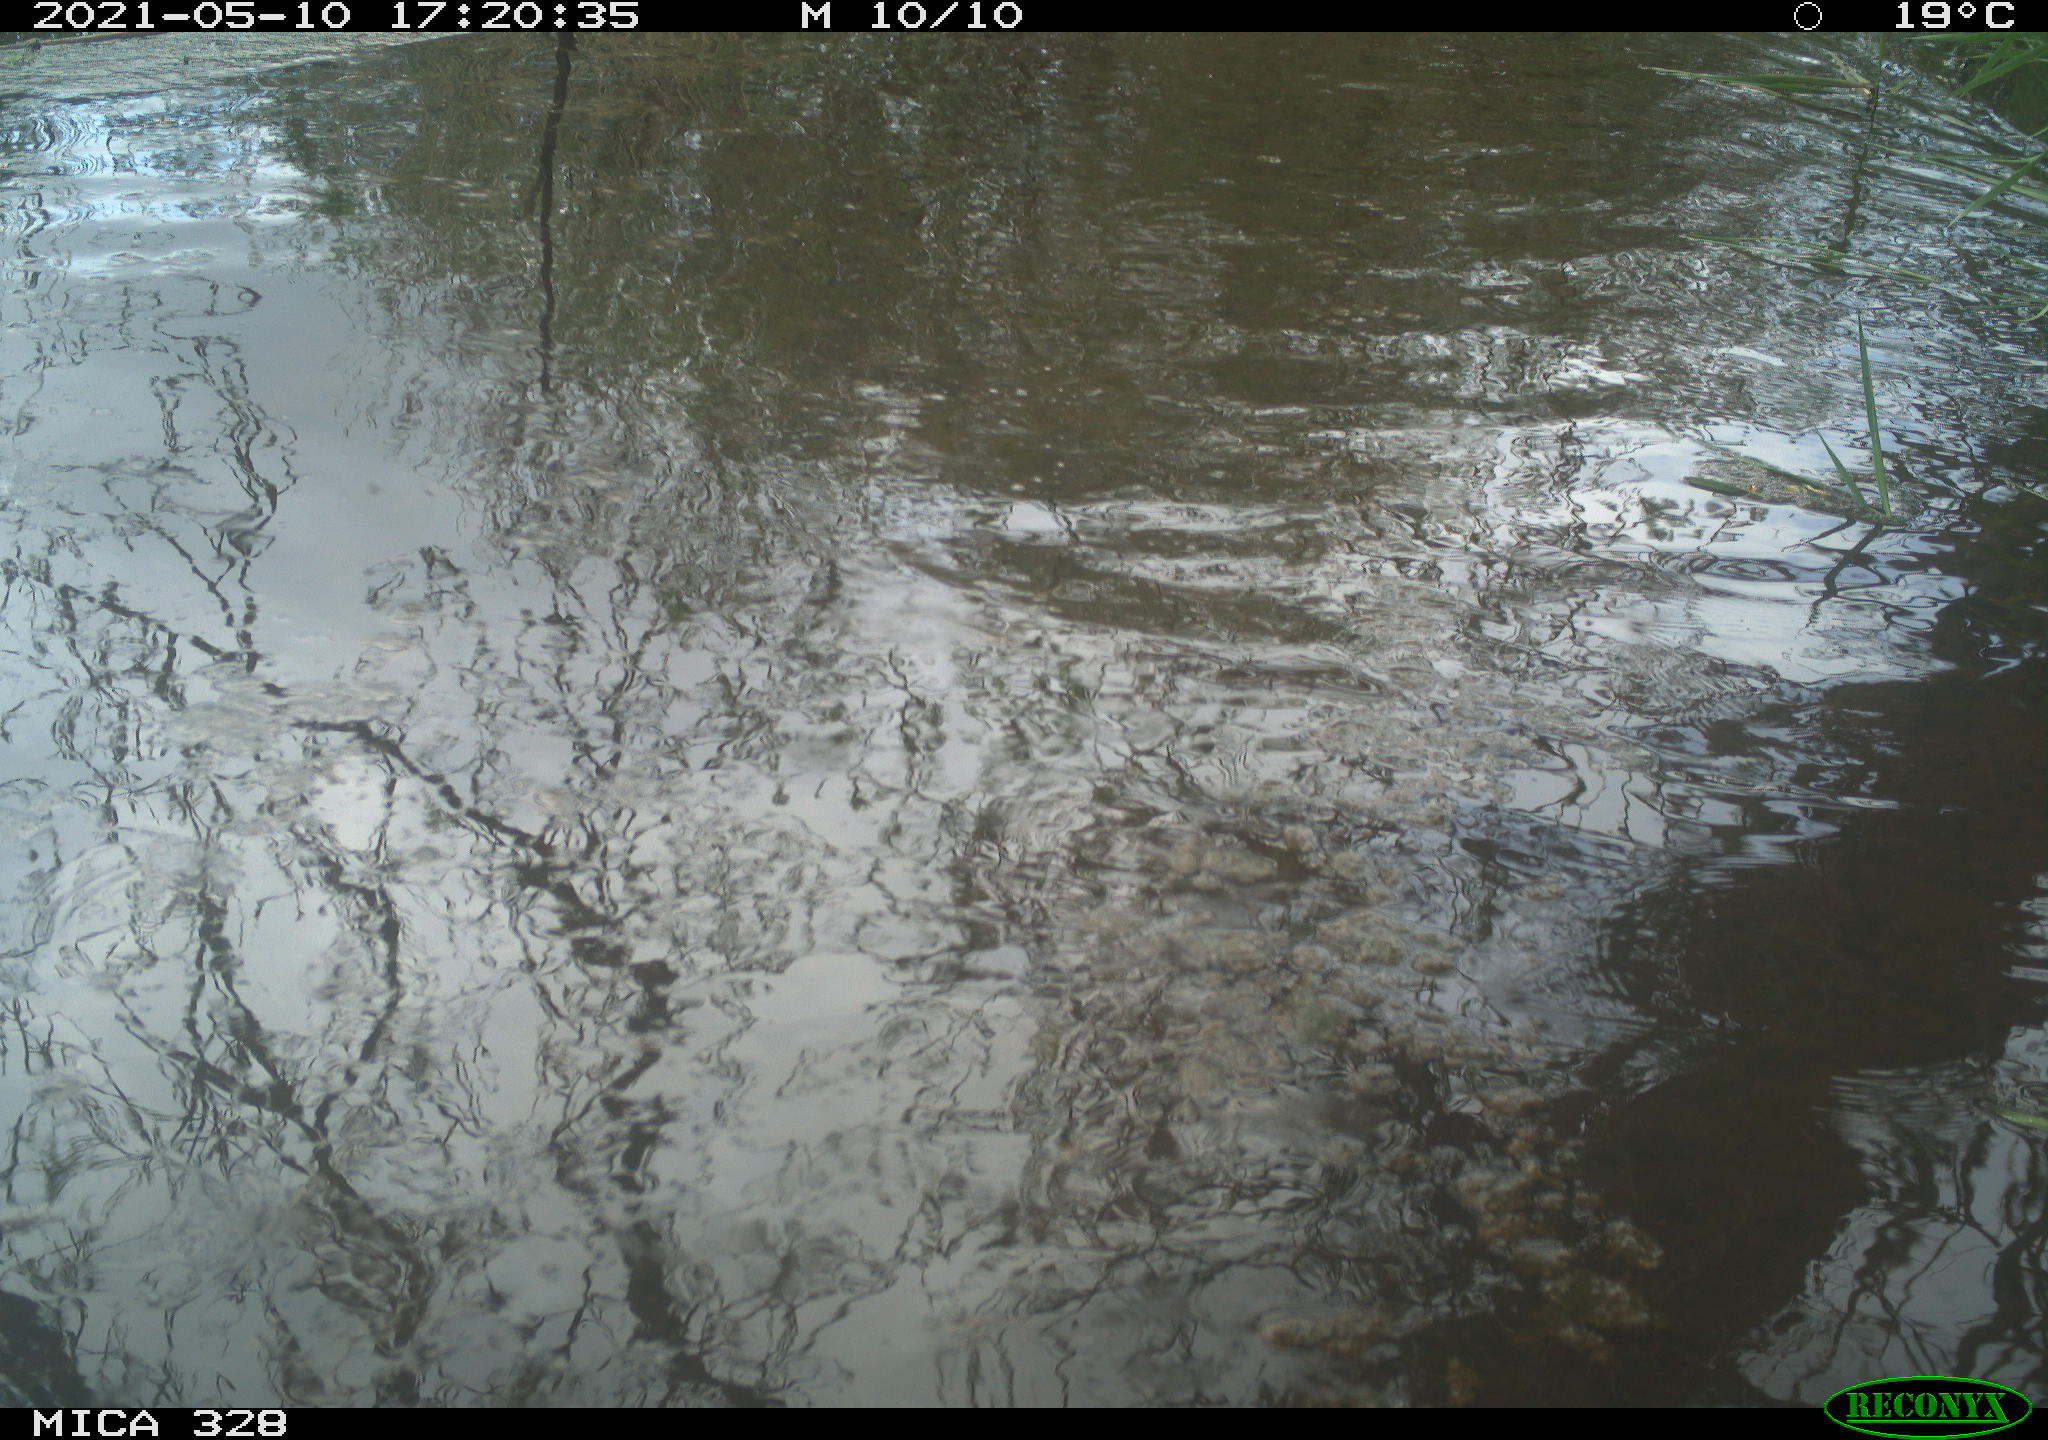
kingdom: Animalia
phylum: Chordata
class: Mammalia
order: Rodentia
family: Cricetidae
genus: Ondatra
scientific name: Ondatra zibethicus
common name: Muskrat
